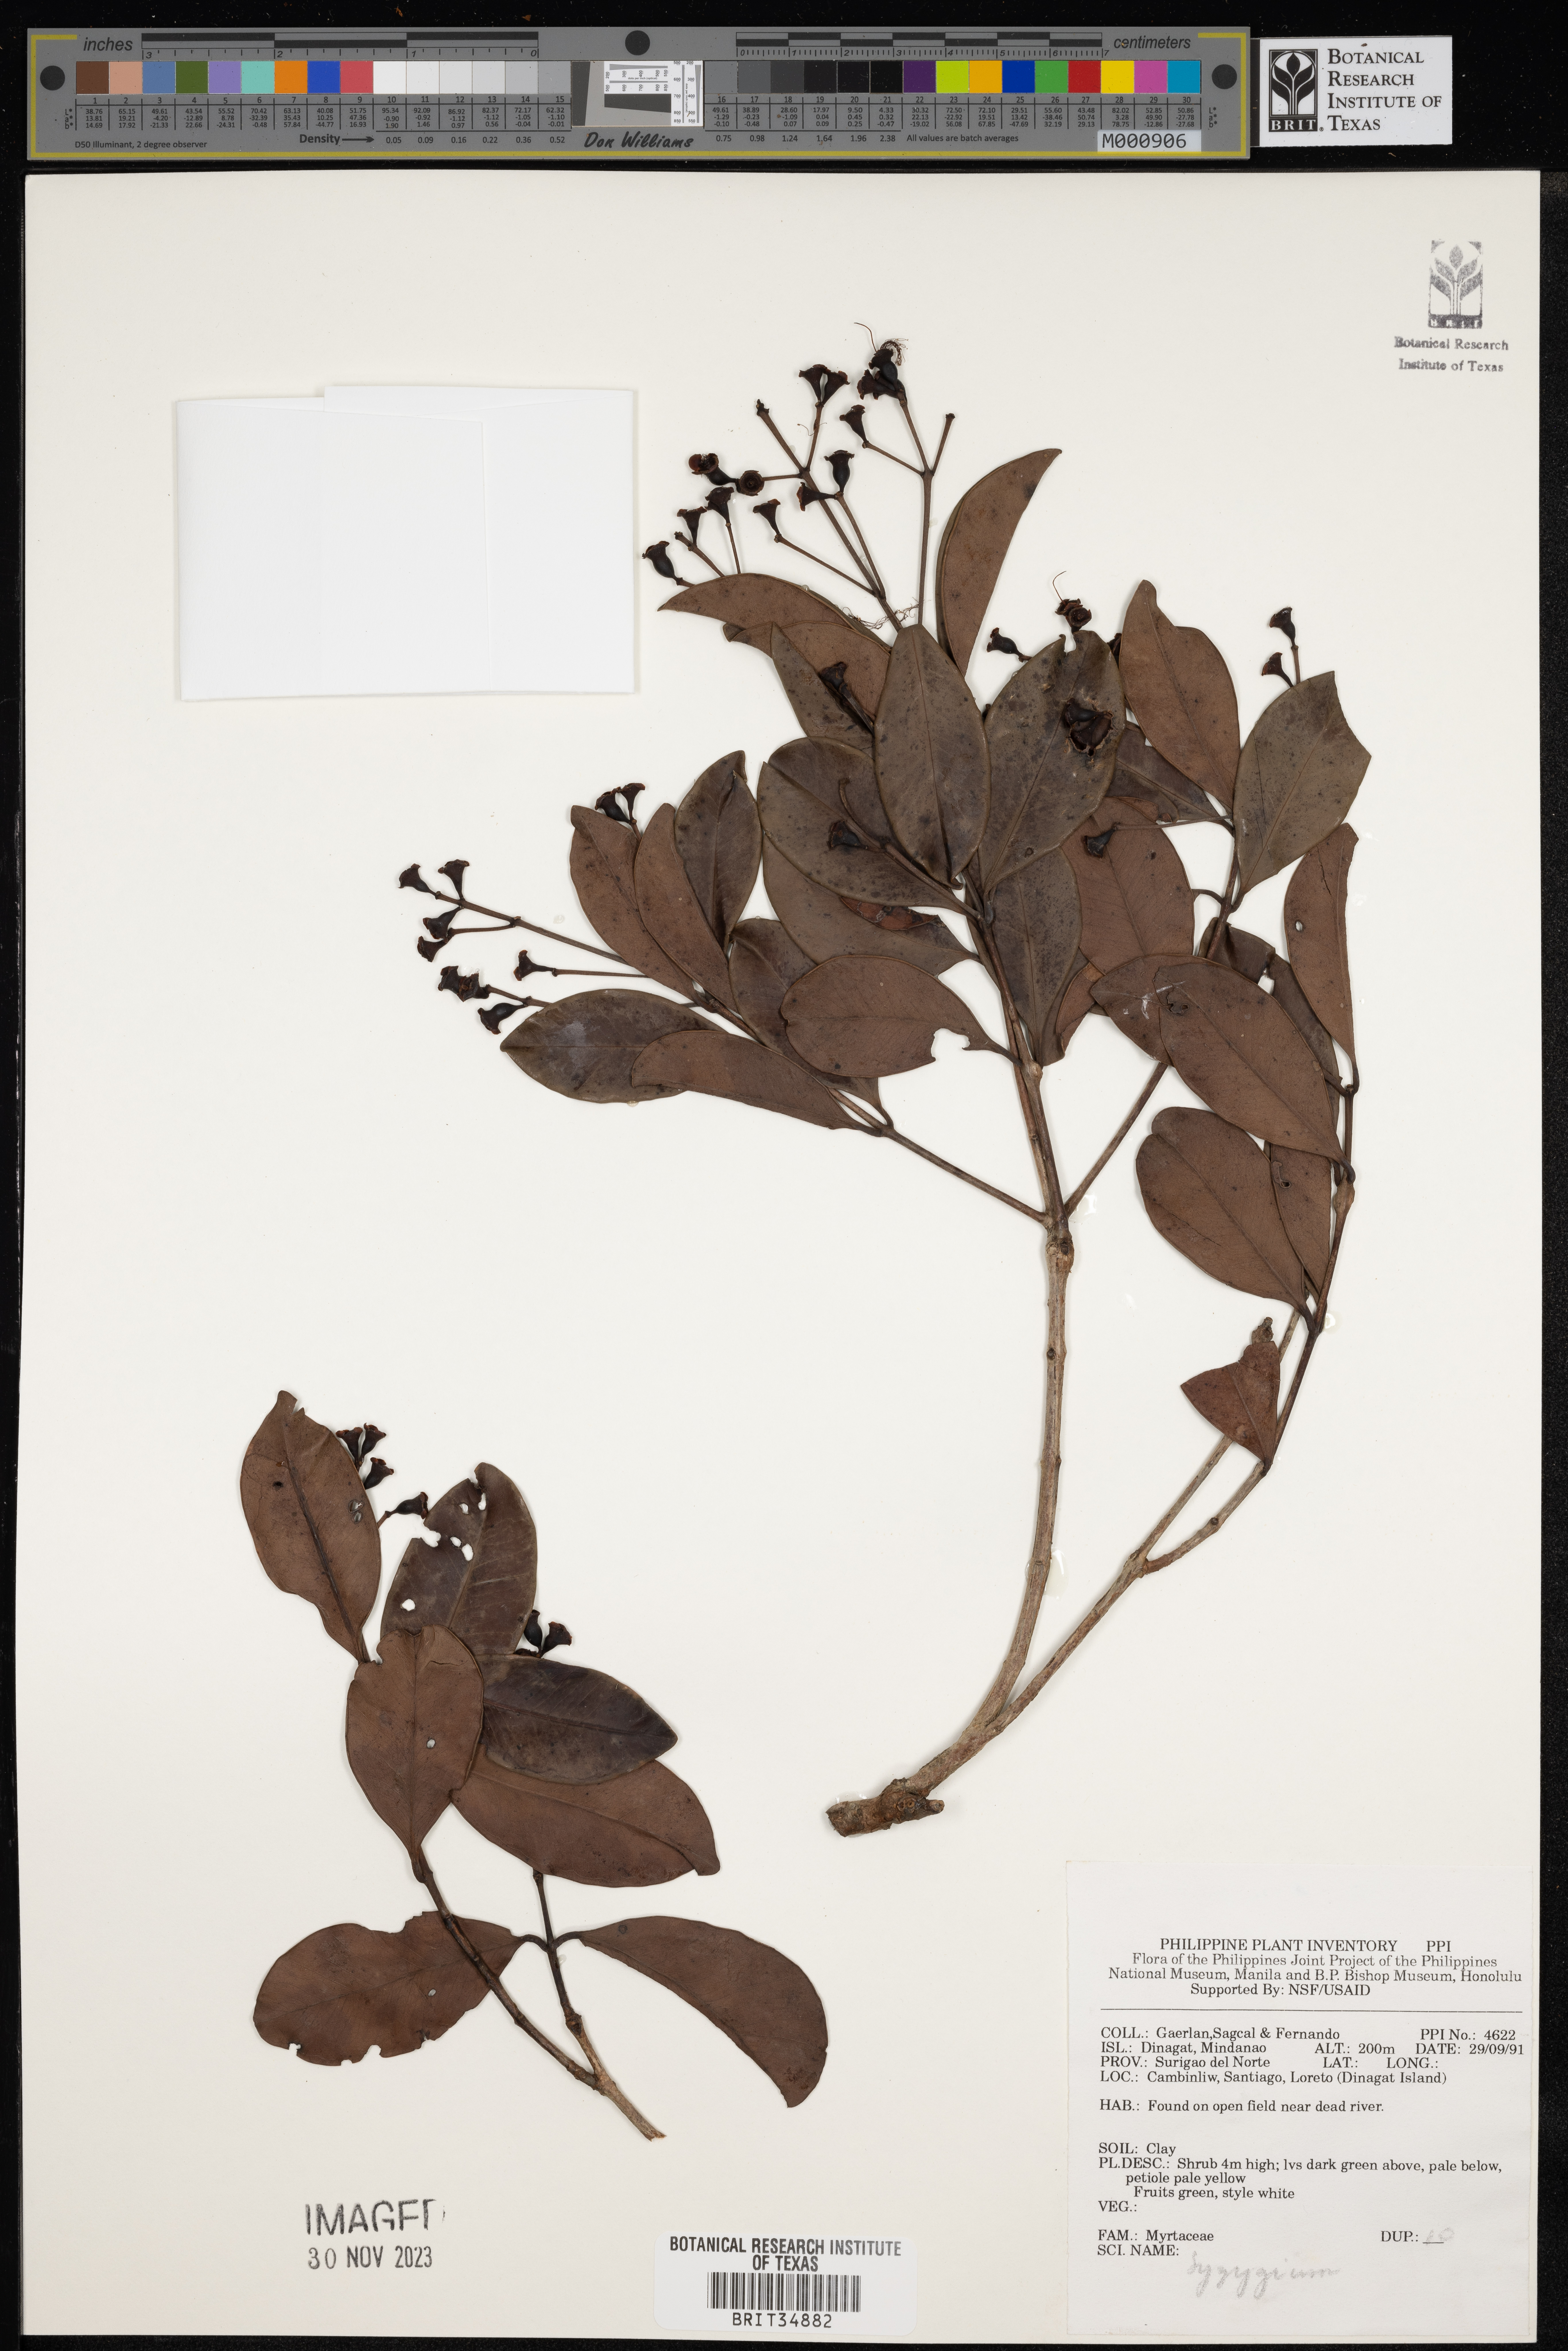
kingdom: Plantae
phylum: Tracheophyta
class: Magnoliopsida
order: Myrtales
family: Myrtaceae
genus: Syzygium
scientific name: Syzygium
